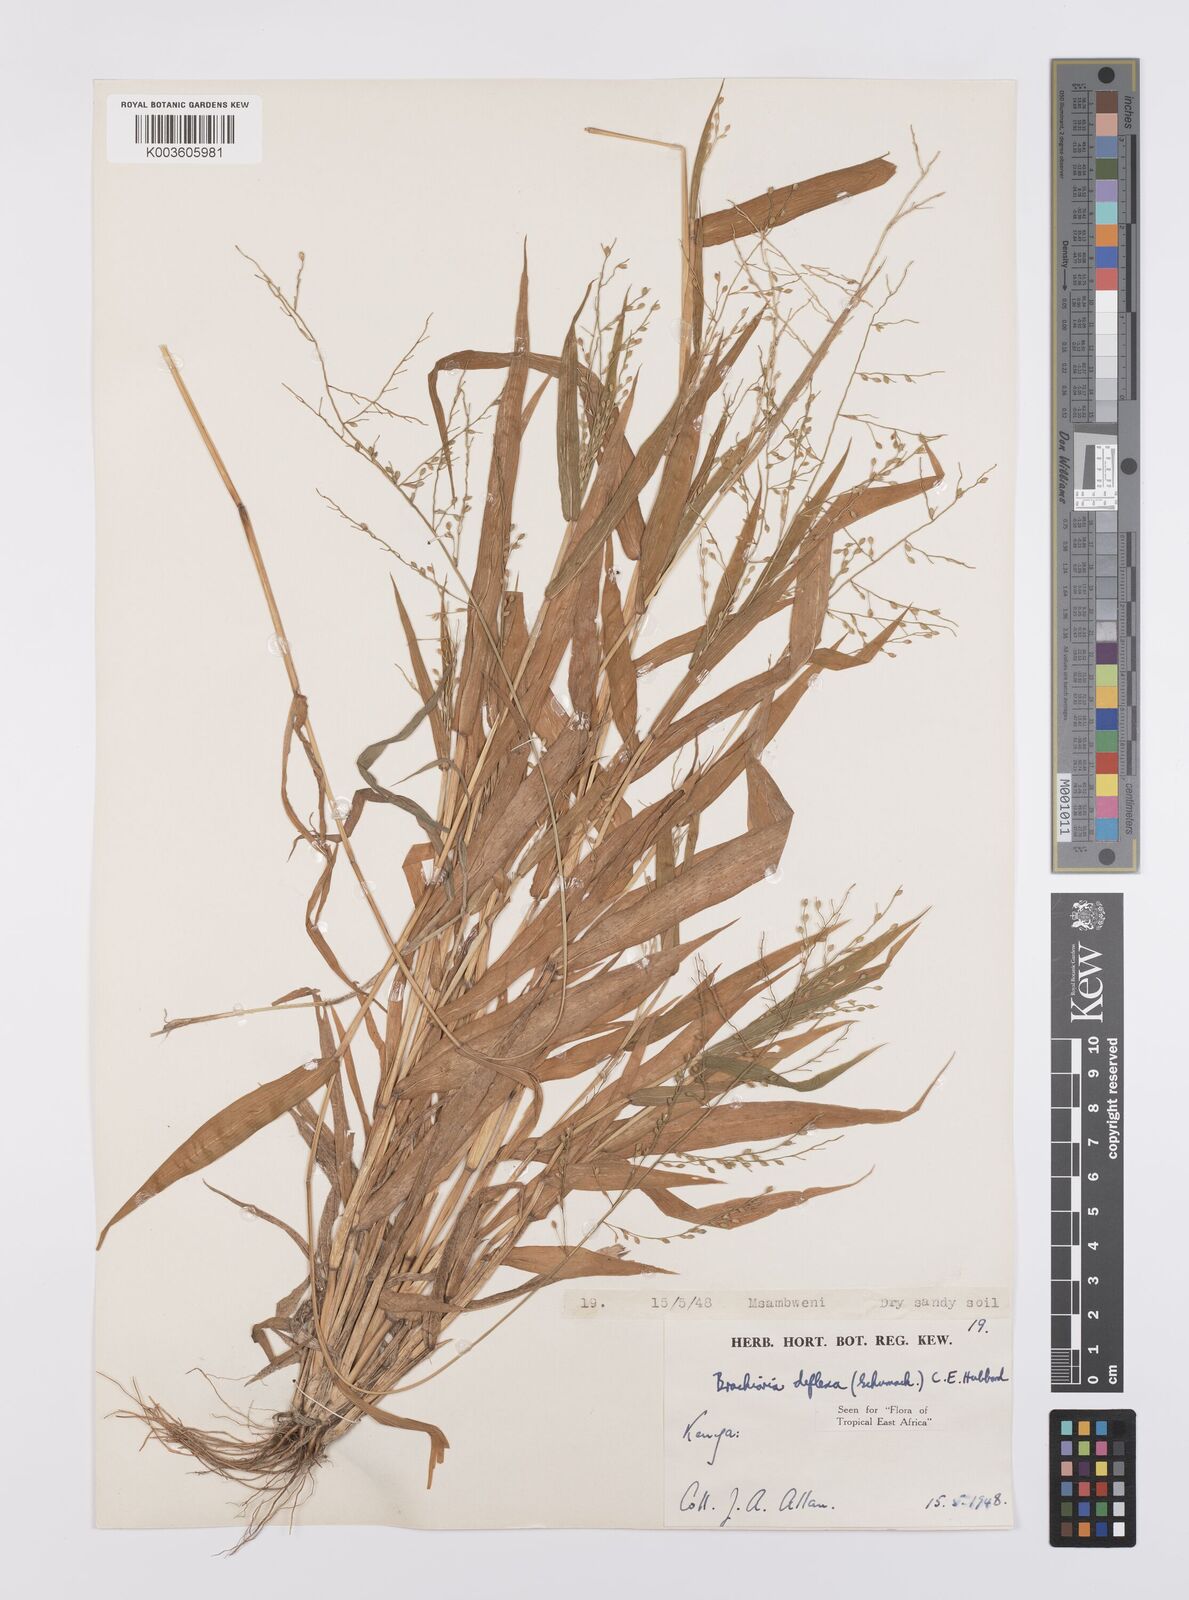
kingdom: Plantae
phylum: Tracheophyta
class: Liliopsida
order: Poales
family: Poaceae
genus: Urochloa
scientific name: Urochloa deflexa
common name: Guinea millet
